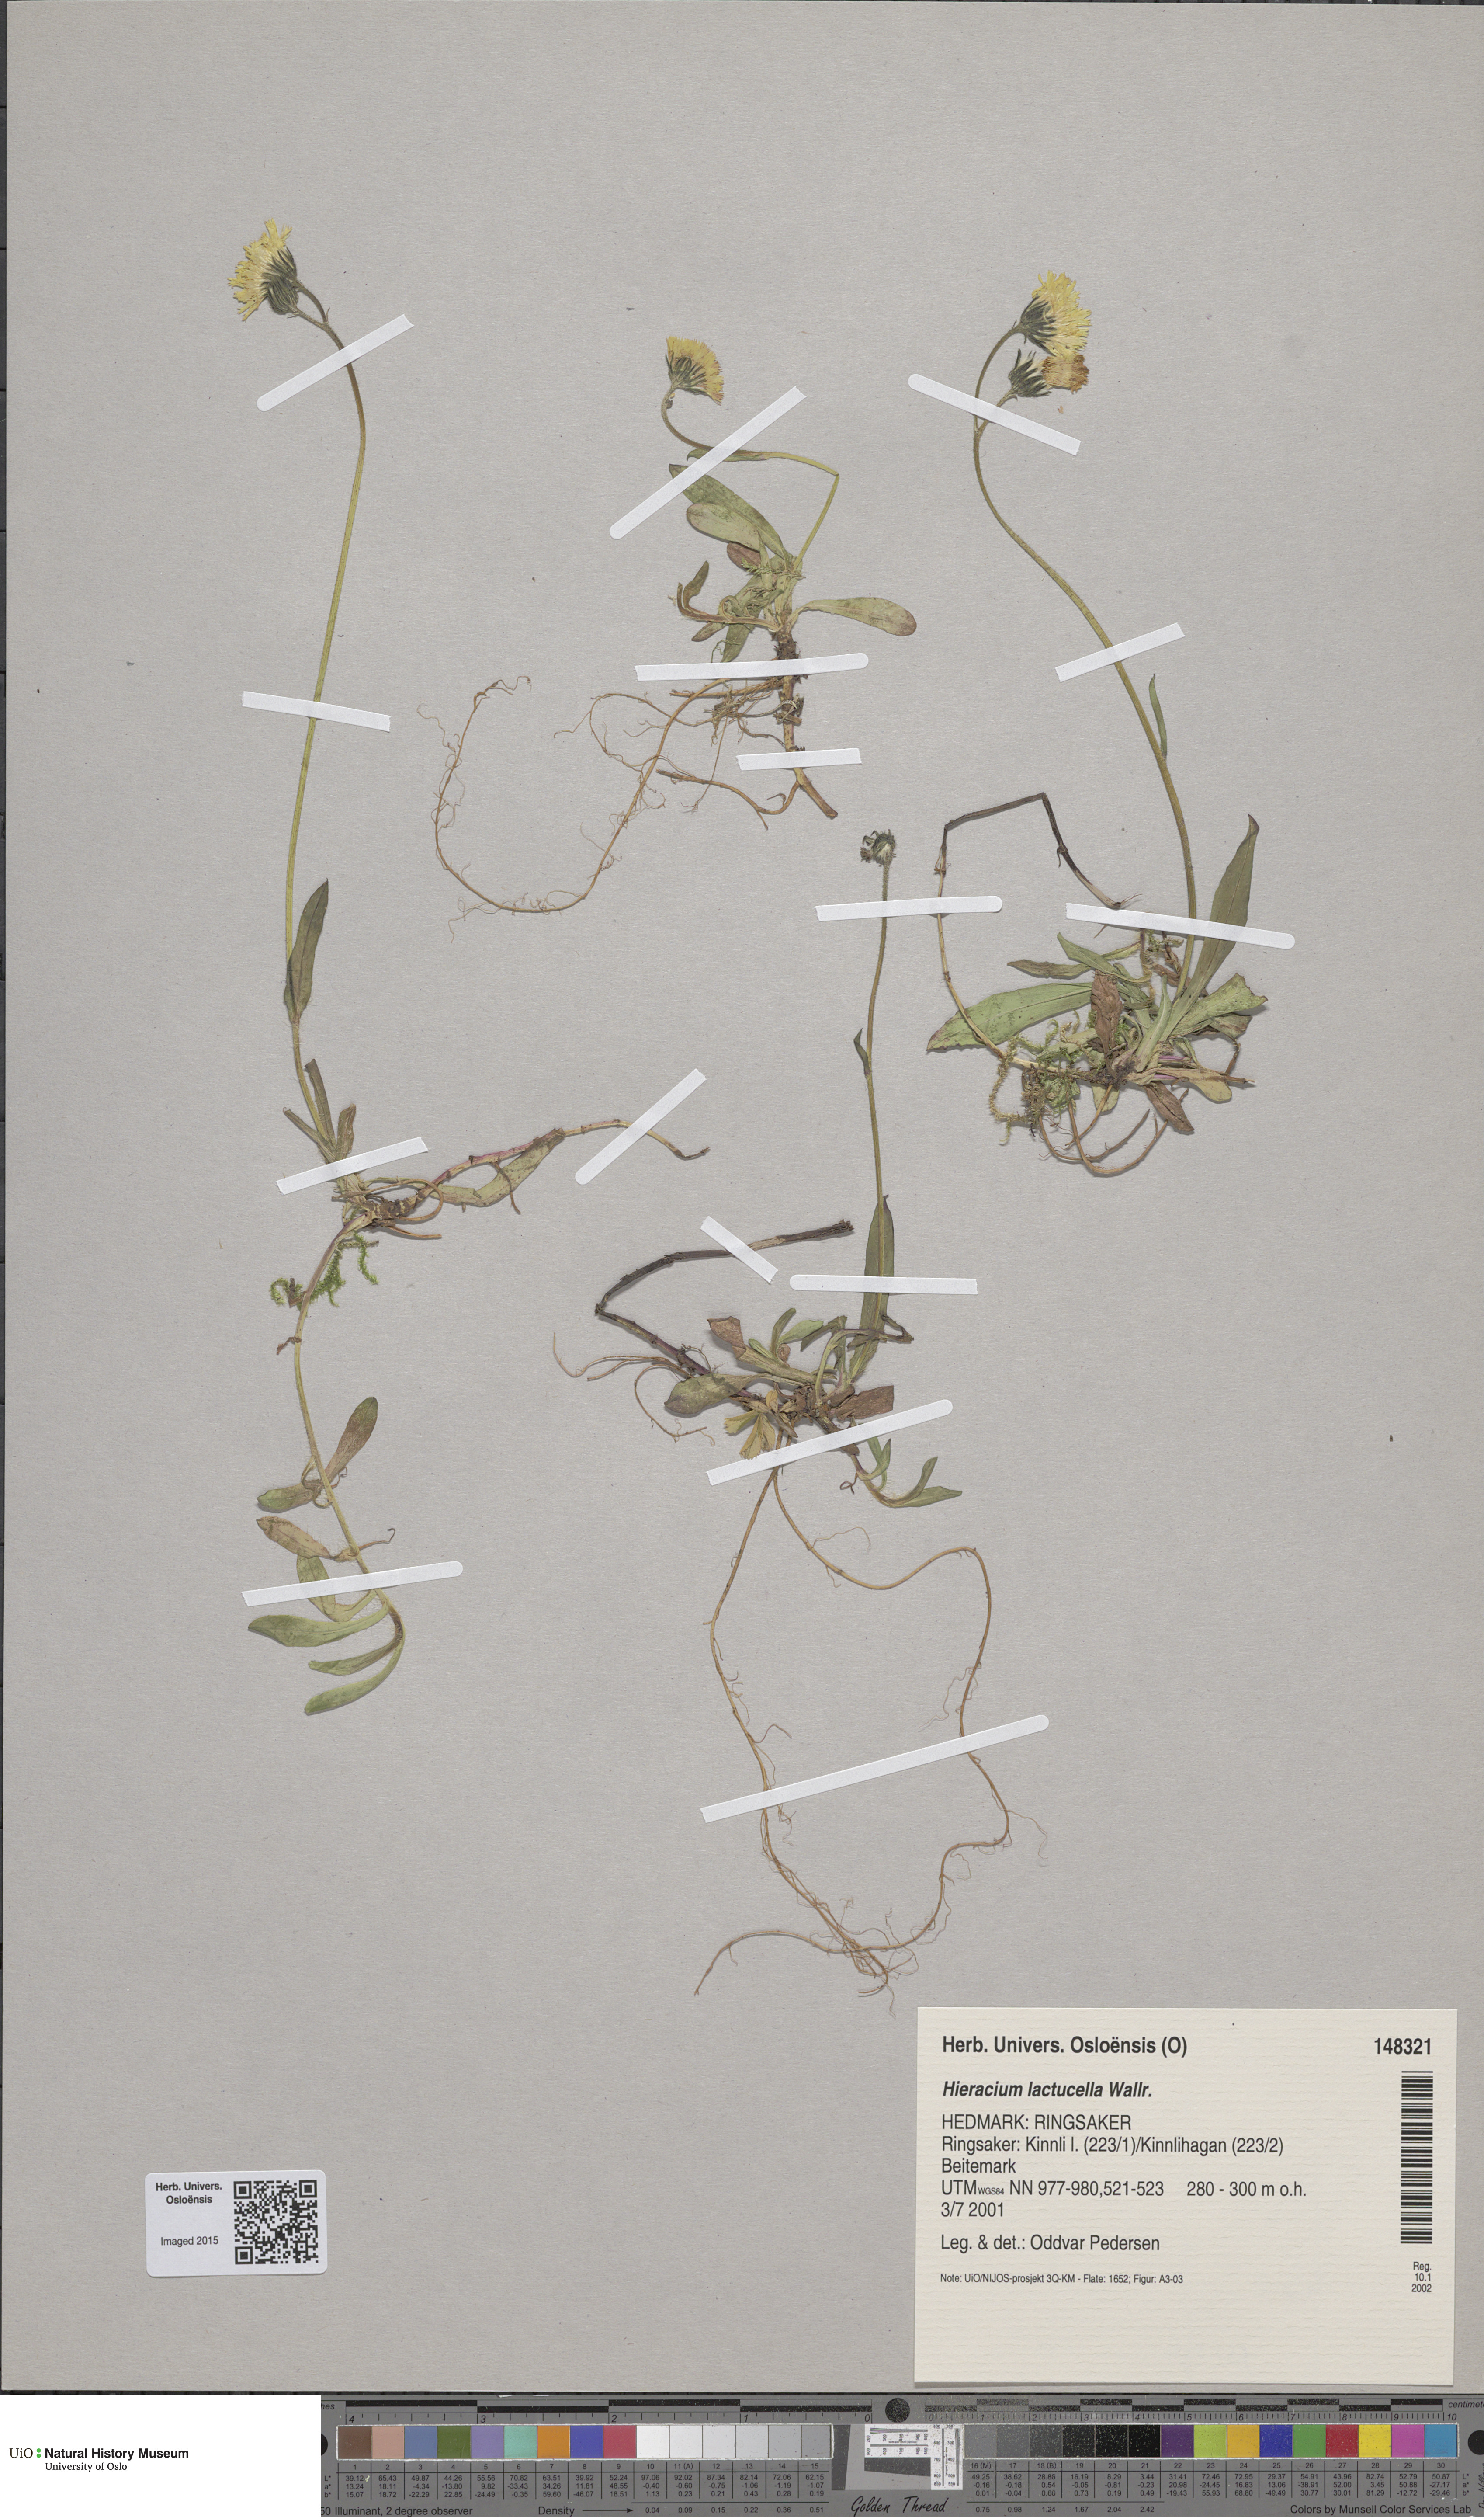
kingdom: Plantae
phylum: Tracheophyta
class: Magnoliopsida
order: Asterales
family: Asteraceae
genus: Pilosella
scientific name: Pilosella lactucella
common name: Glaucous fox-and-cubs
